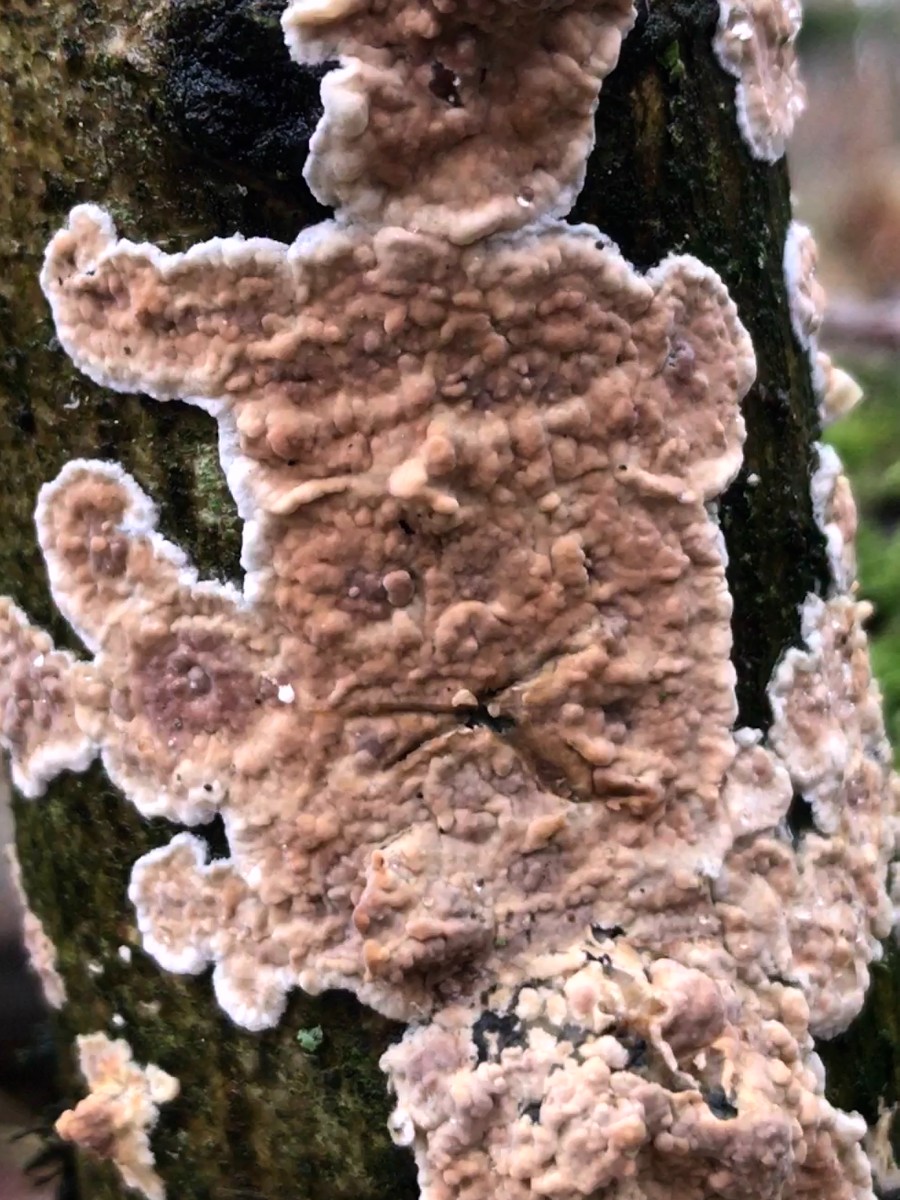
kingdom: Fungi
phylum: Basidiomycota
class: Agaricomycetes
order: Russulales
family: Peniophoraceae
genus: Peniophora
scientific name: Peniophora incarnata
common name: laksefarvet voksskind
